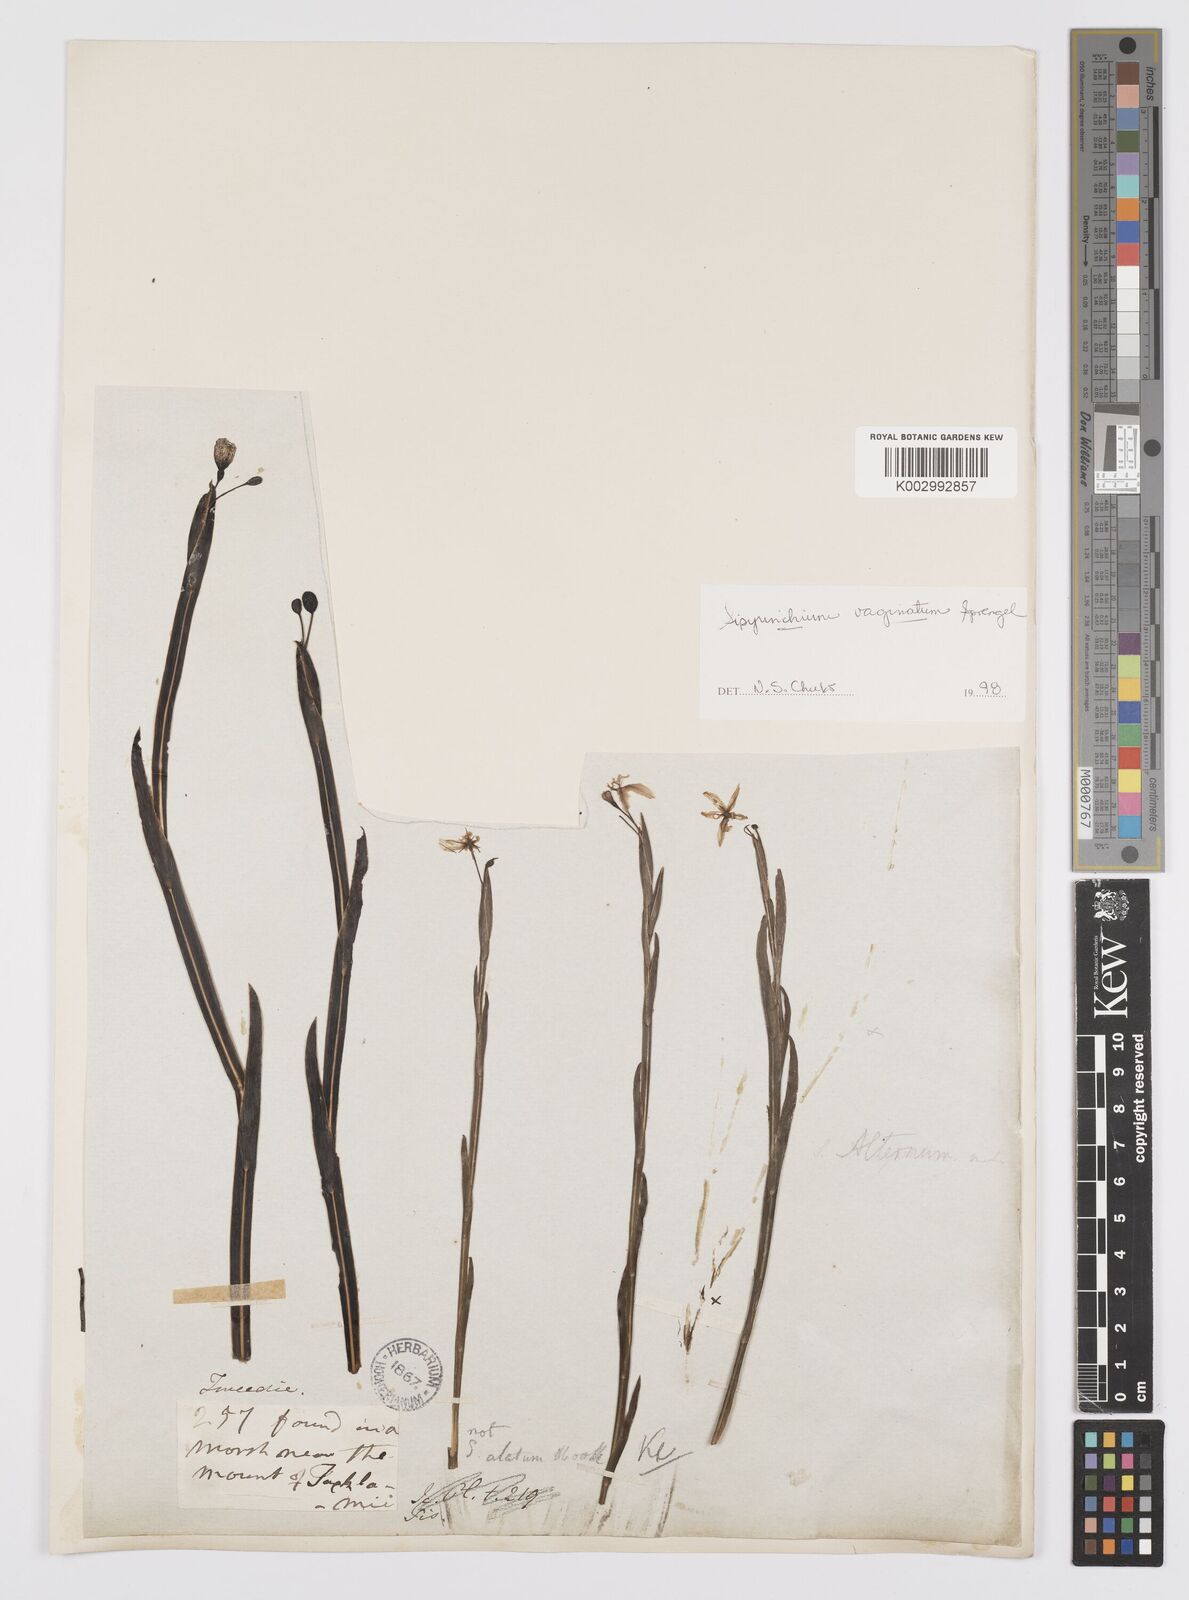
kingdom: Plantae
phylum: Tracheophyta
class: Liliopsida
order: Asparagales
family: Iridaceae
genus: Sisyrinchium
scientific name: Sisyrinchium vaginatum
